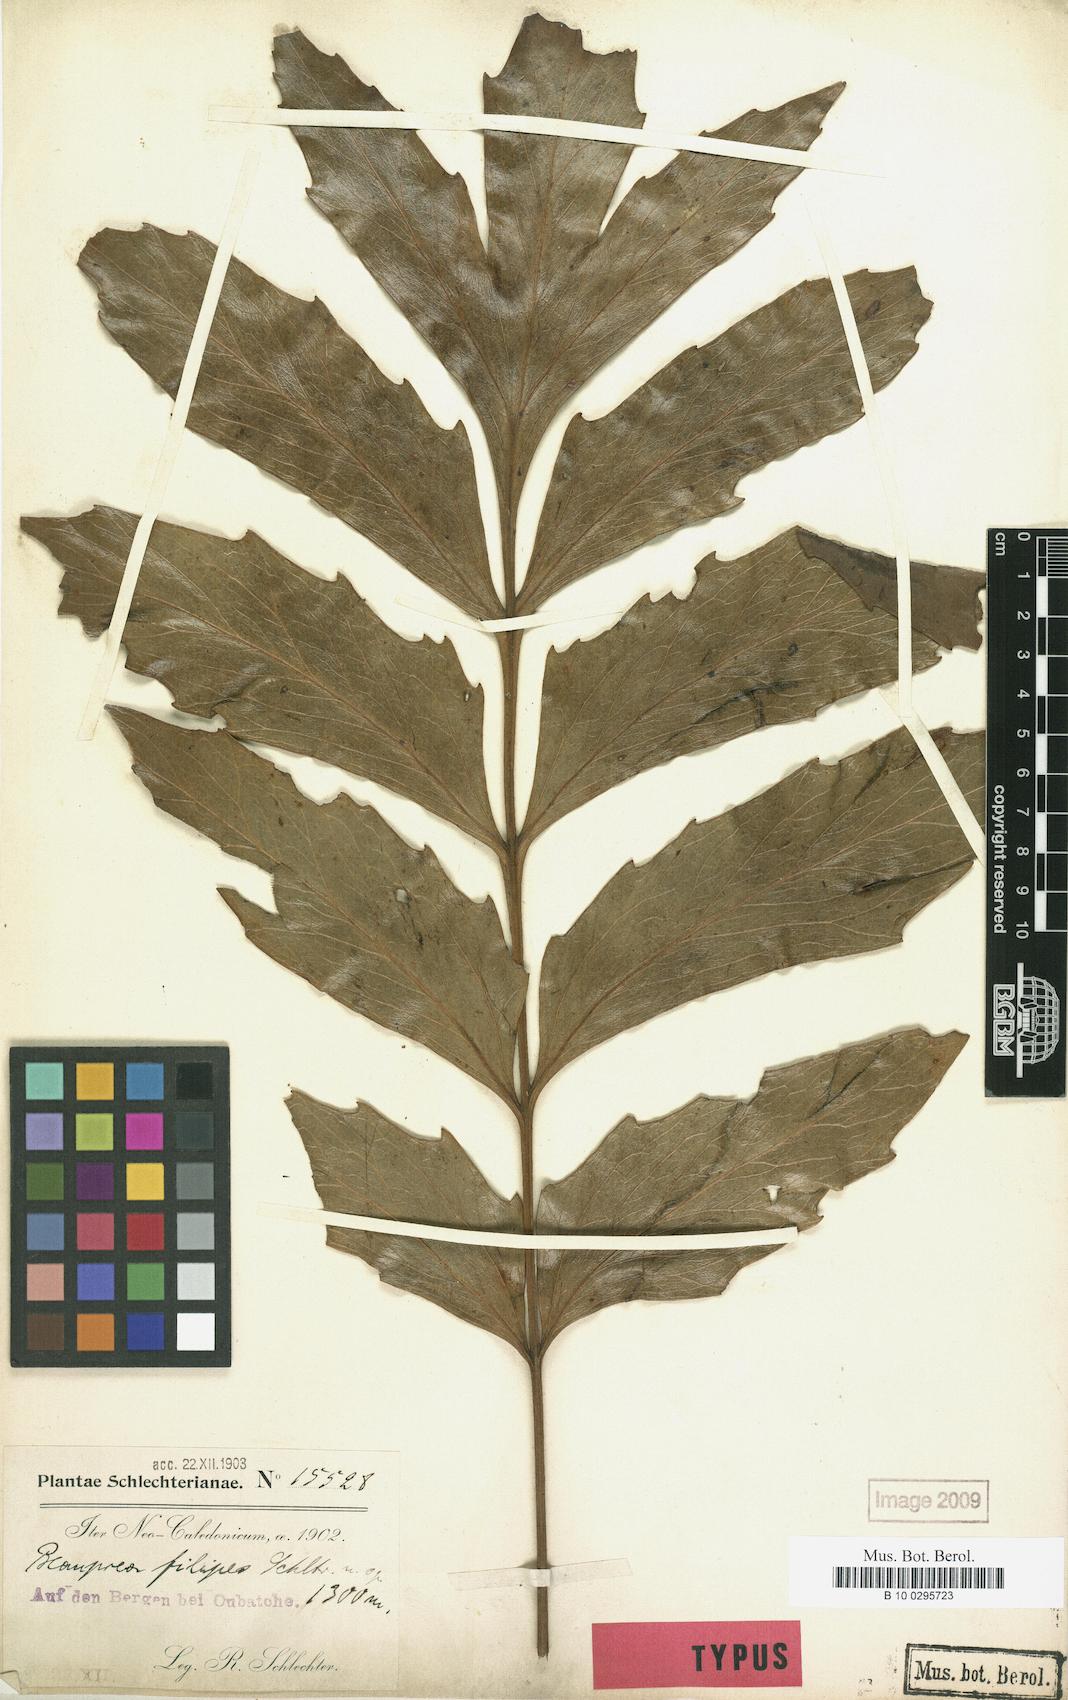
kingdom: Plantae
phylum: Tracheophyta
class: Magnoliopsida
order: Proteales
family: Proteaceae
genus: Beauprea
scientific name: Beauprea filipes
